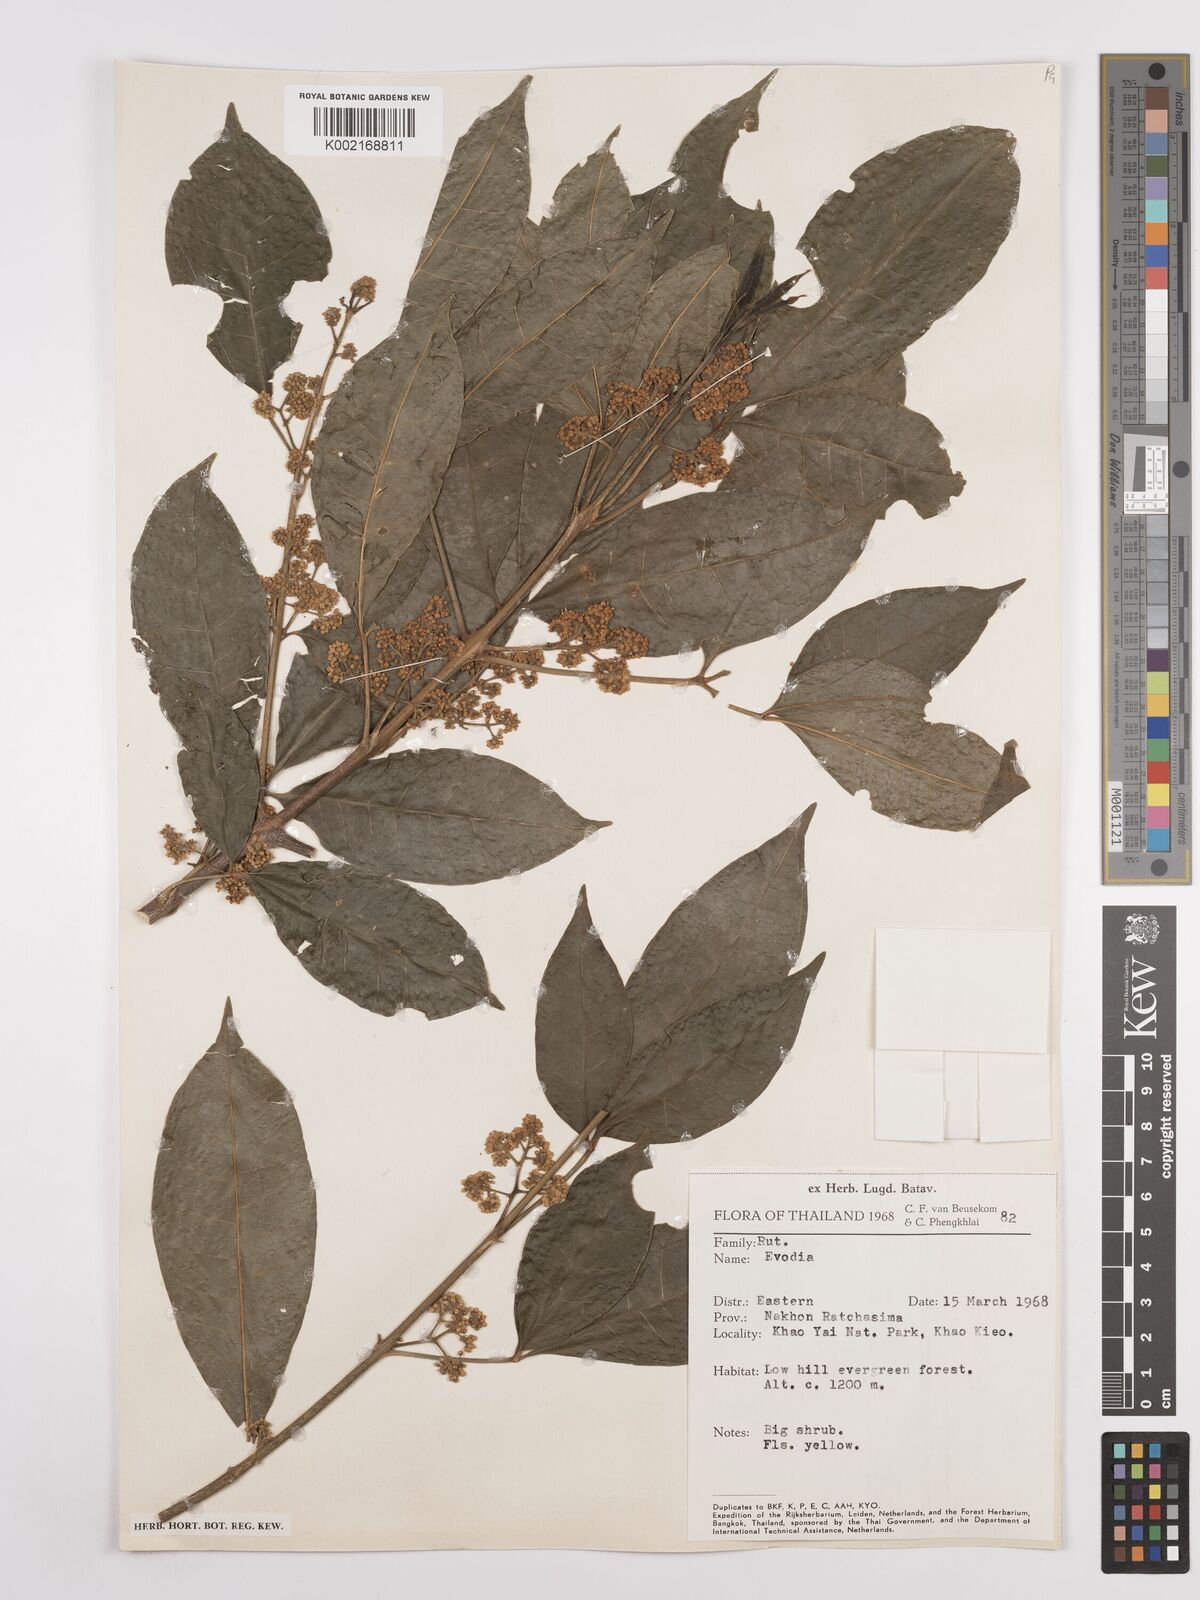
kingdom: Plantae
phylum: Tracheophyta
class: Magnoliopsida
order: Sapindales
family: Rutaceae
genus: Euodia
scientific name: Euodia
